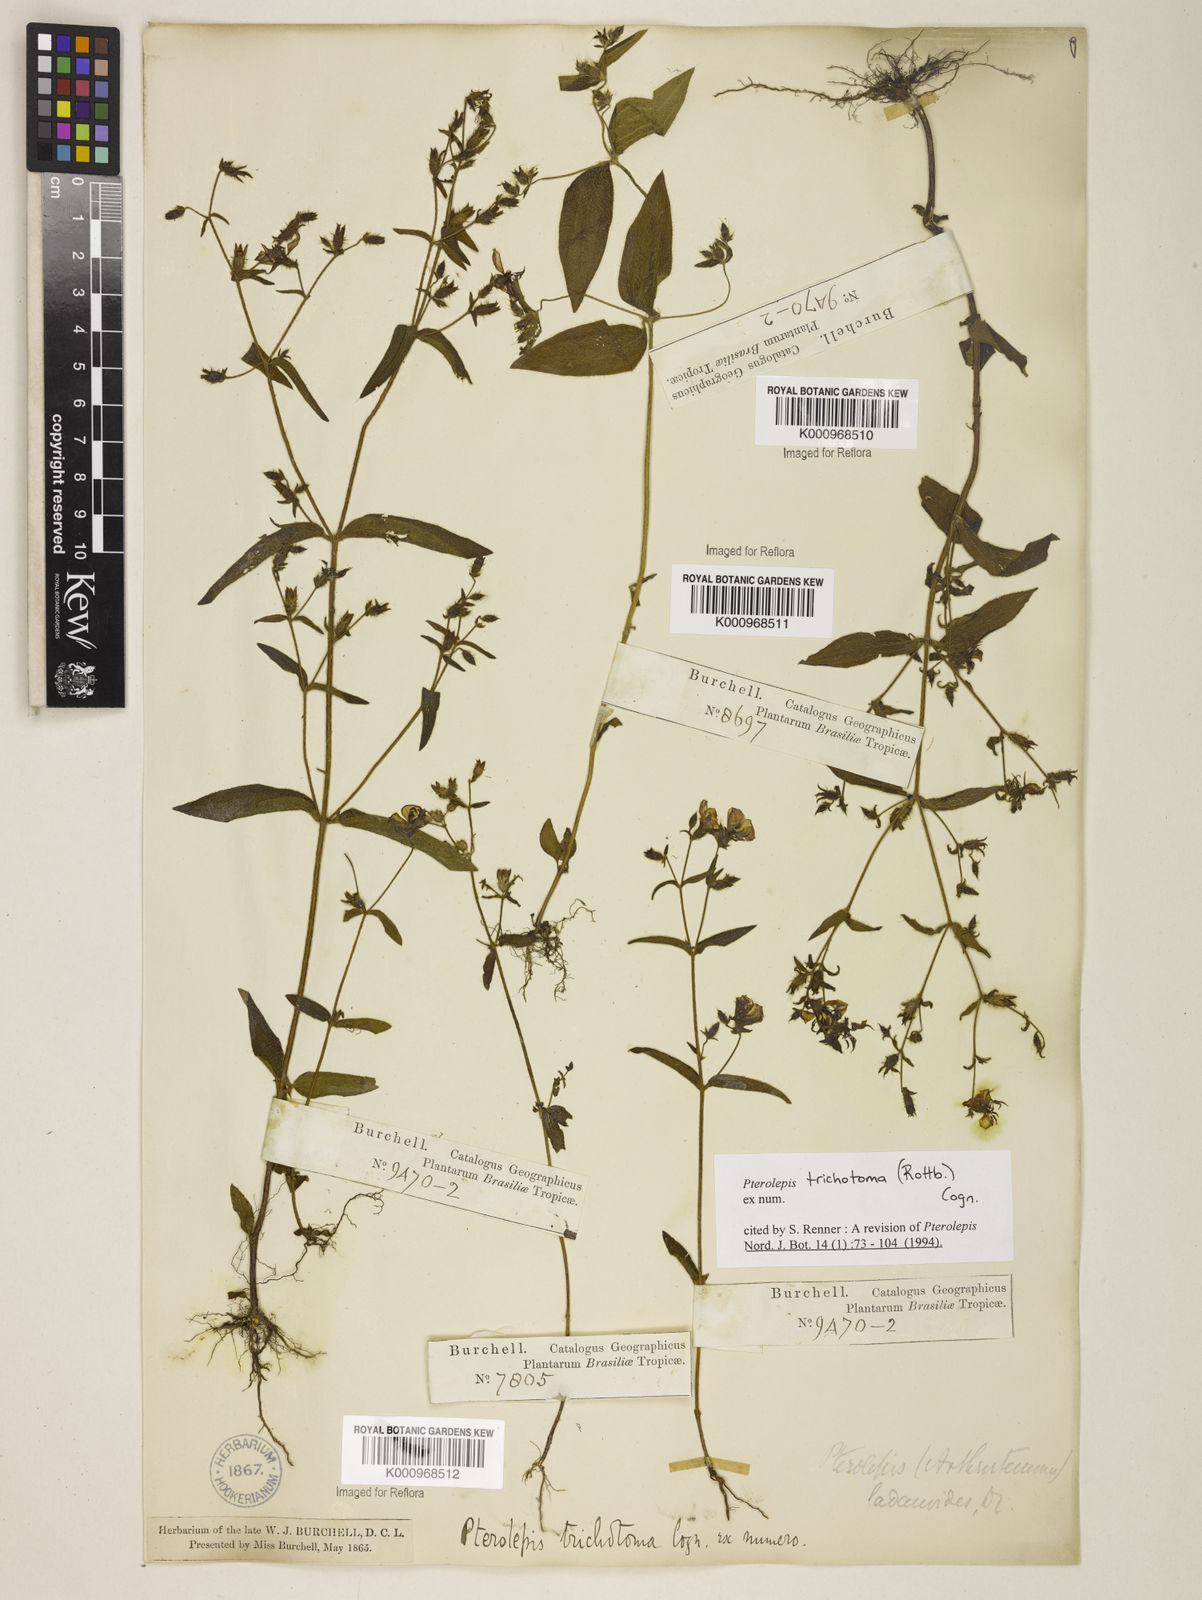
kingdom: Plantae
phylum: Tracheophyta
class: Magnoliopsida
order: Myrtales
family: Melastomataceae
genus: Pterolepis
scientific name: Pterolepis trichotoma
